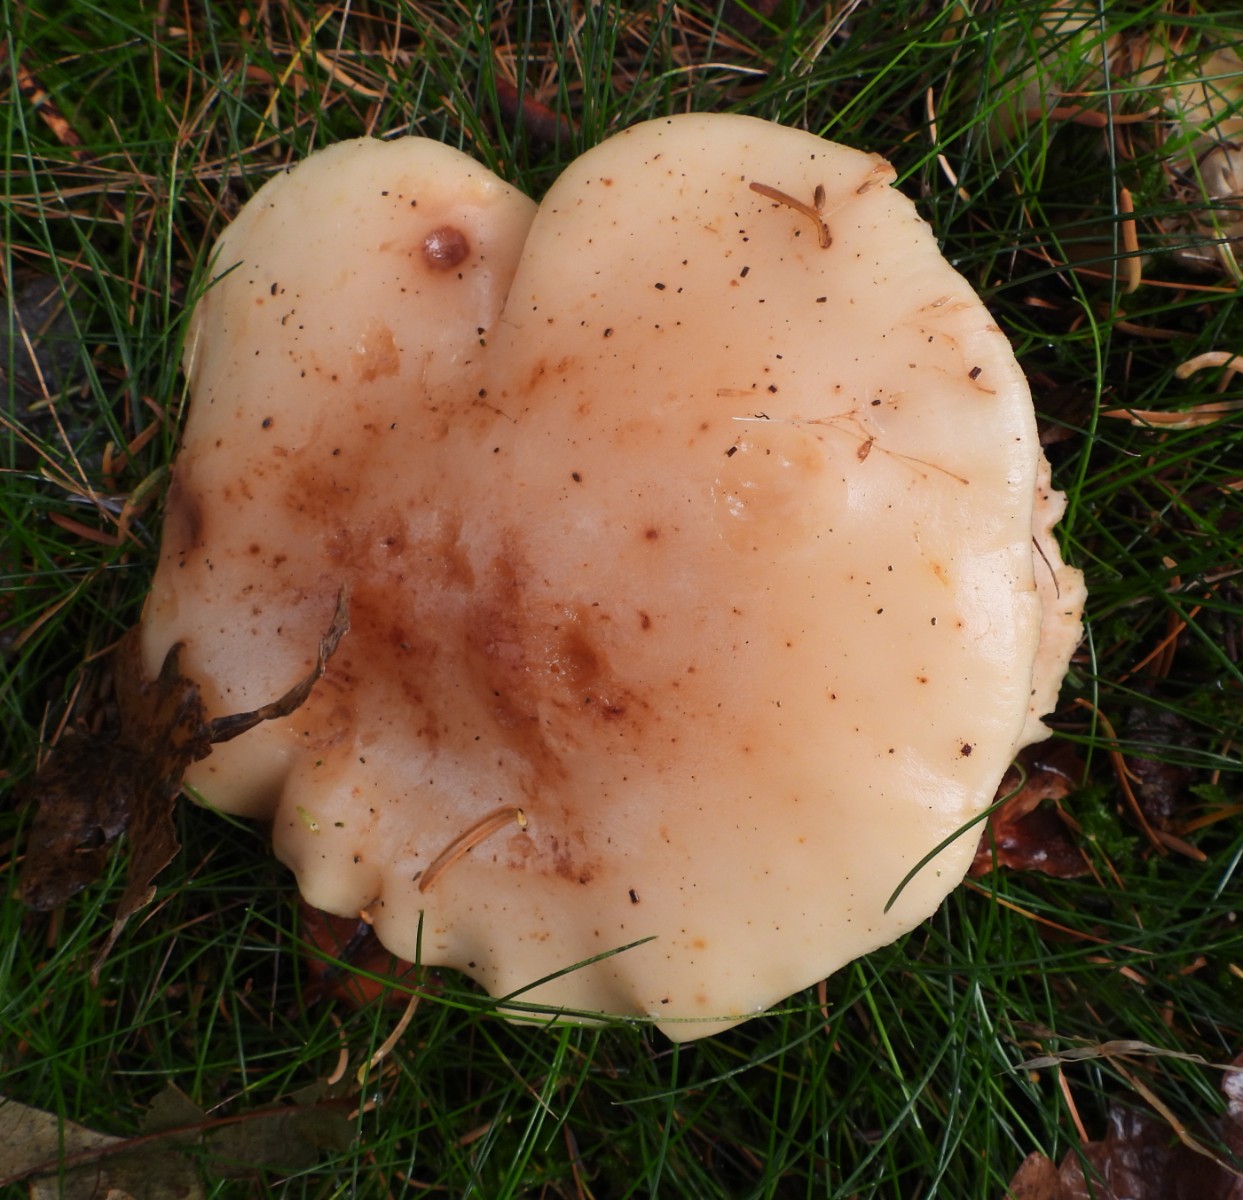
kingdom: Fungi
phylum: Basidiomycota
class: Agaricomycetes
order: Agaricales
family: Omphalotaceae
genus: Rhodocollybia
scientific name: Rhodocollybia maculata
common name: plettet fladhat
